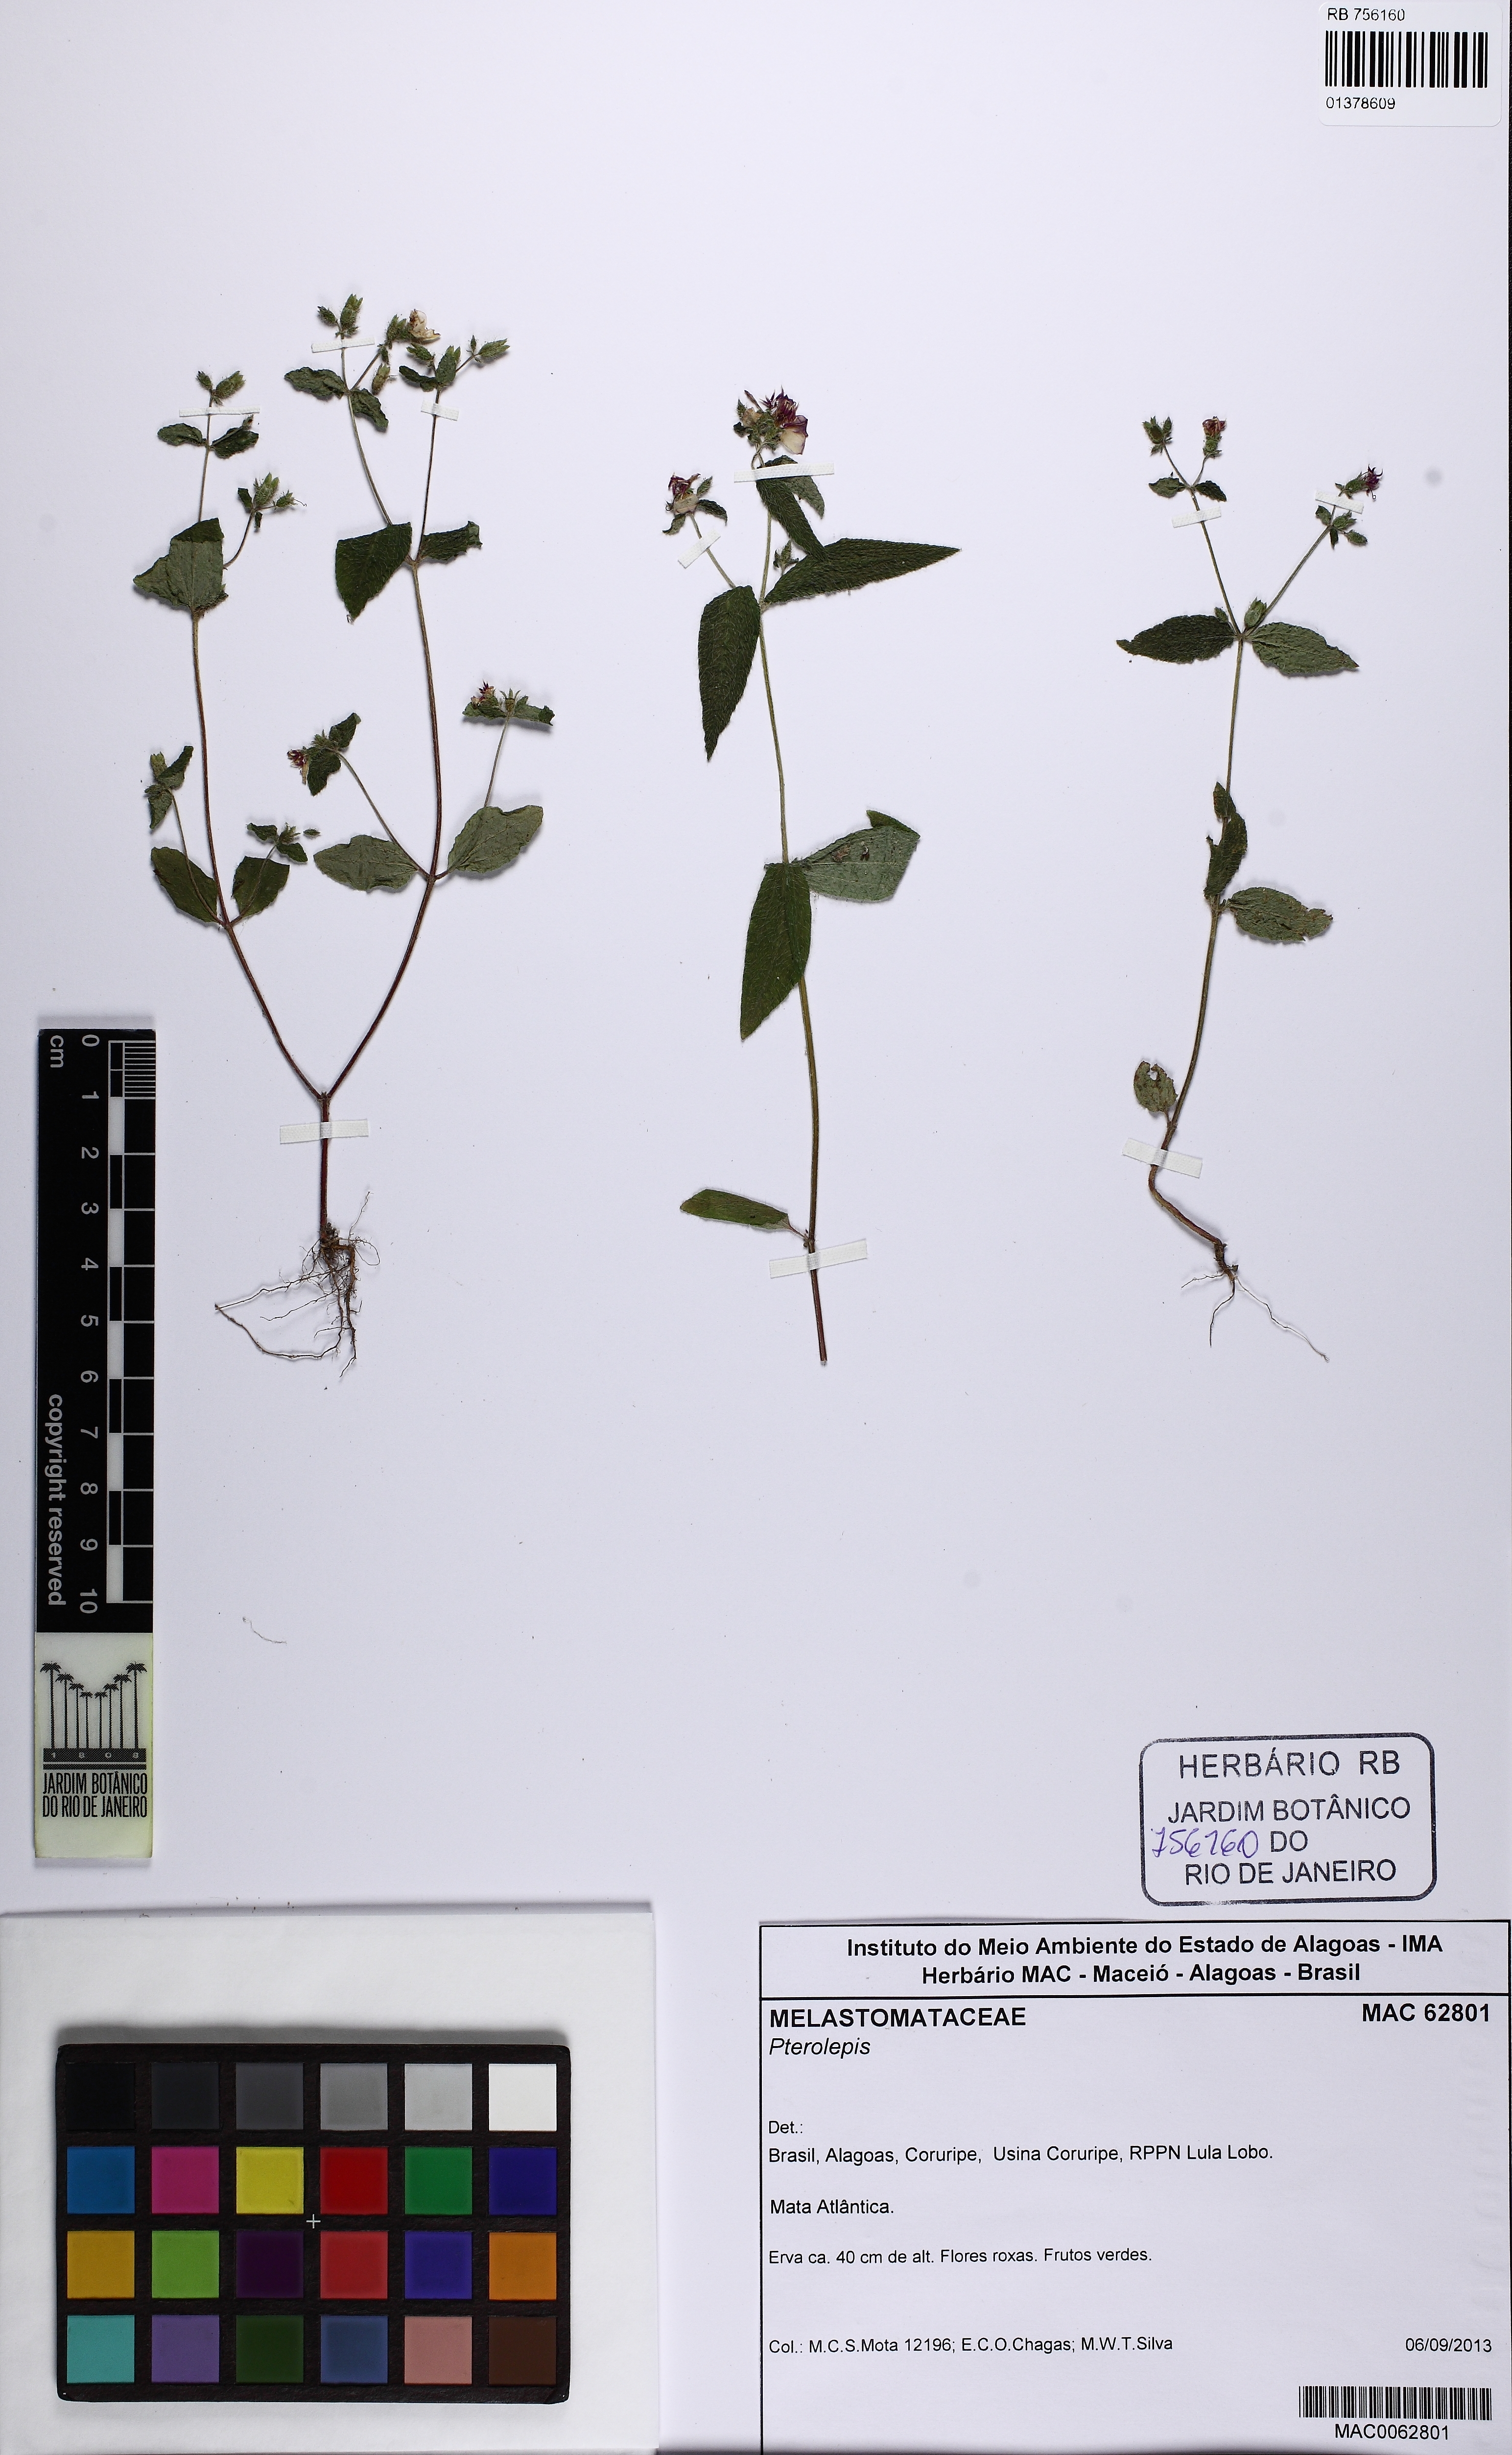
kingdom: Plantae
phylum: Tracheophyta
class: Magnoliopsida
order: Myrtales
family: Melastomataceae
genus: Pterolepis
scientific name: Pterolepis
